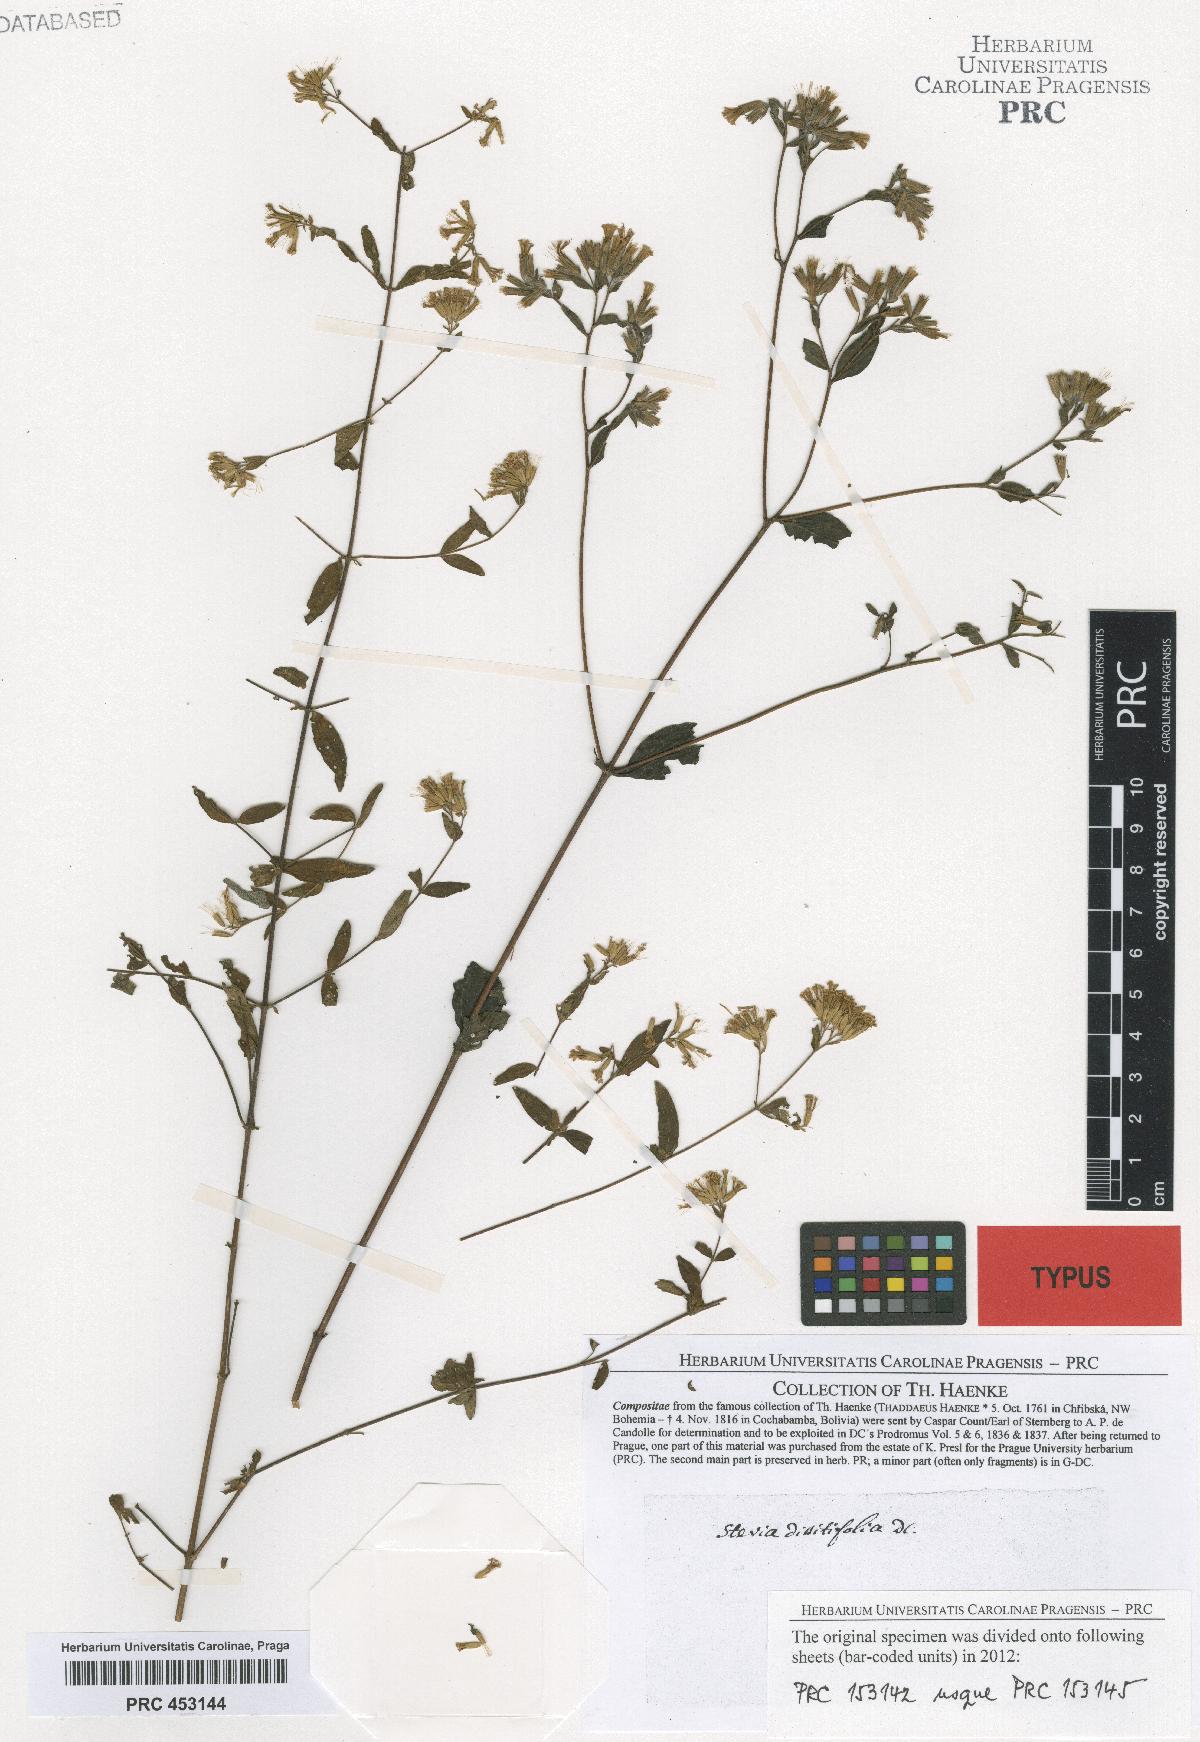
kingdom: Plantae
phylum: Tracheophyta
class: Magnoliopsida
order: Asterales
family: Asteraceae
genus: Stevia
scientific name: Stevia origanoides
